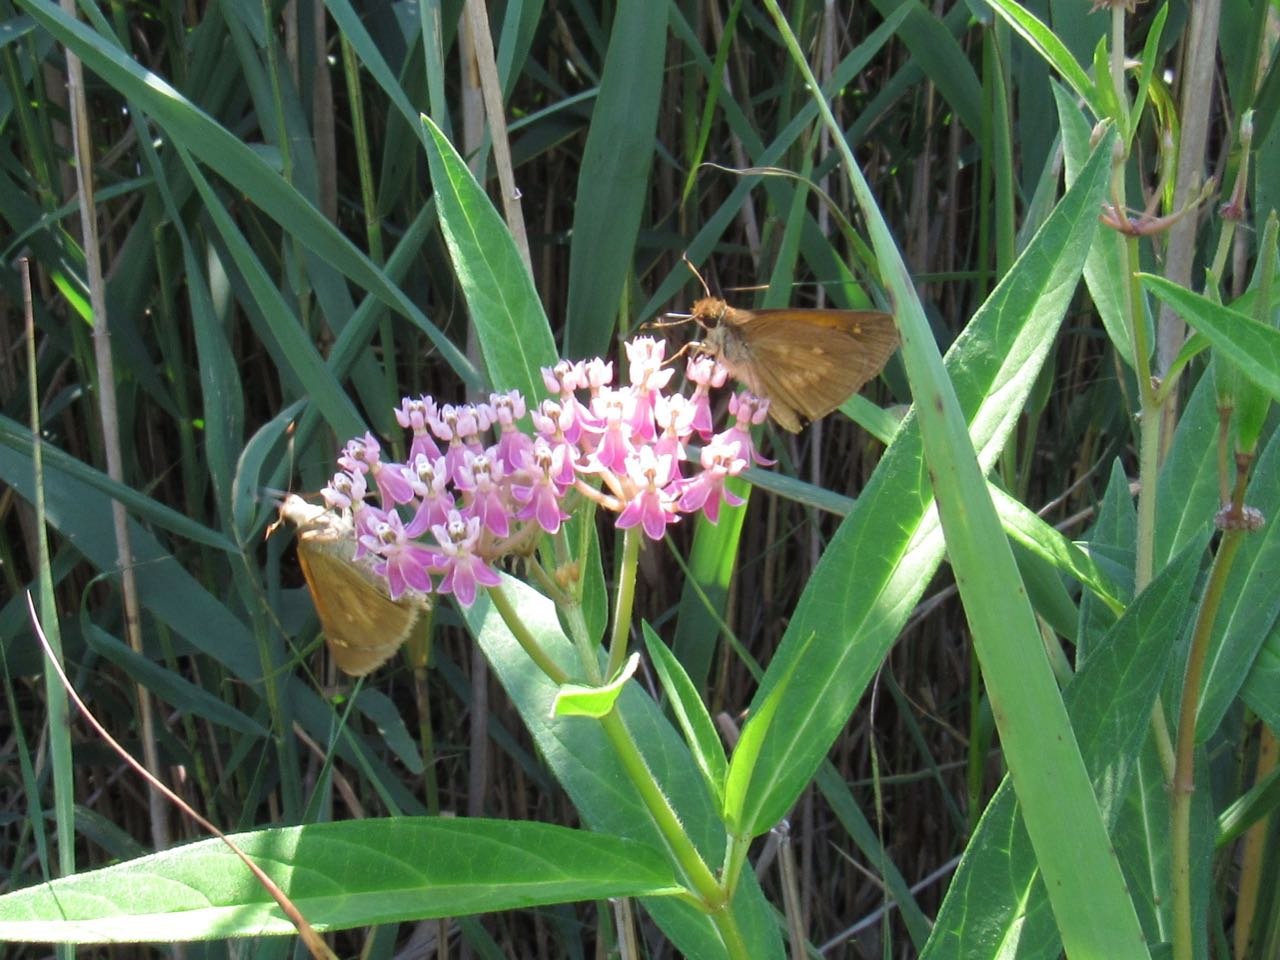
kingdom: Animalia
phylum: Arthropoda
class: Insecta
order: Lepidoptera
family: Hesperiidae
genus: Poanes
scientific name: Poanes viator
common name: Broad-winged Skipper
